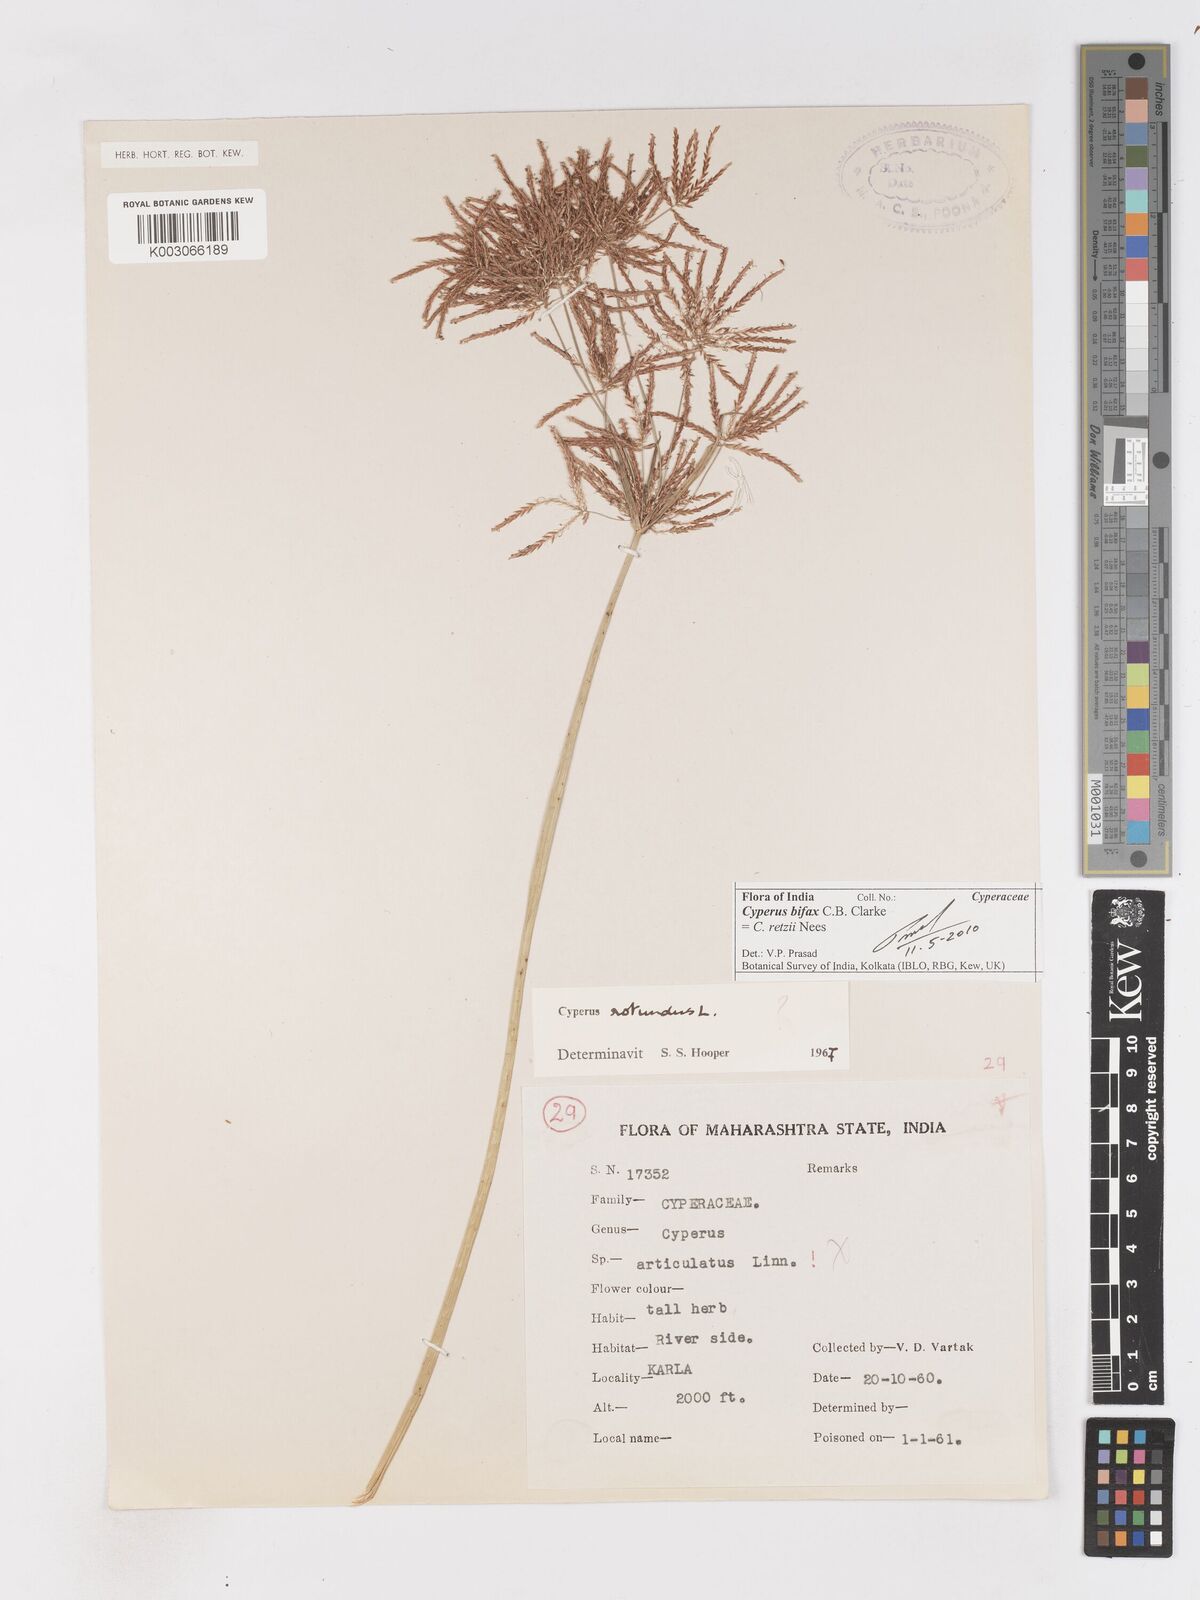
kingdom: Plantae
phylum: Tracheophyta
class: Liliopsida
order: Poales
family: Cyperaceae
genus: Cyperus
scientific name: Cyperus bifax
